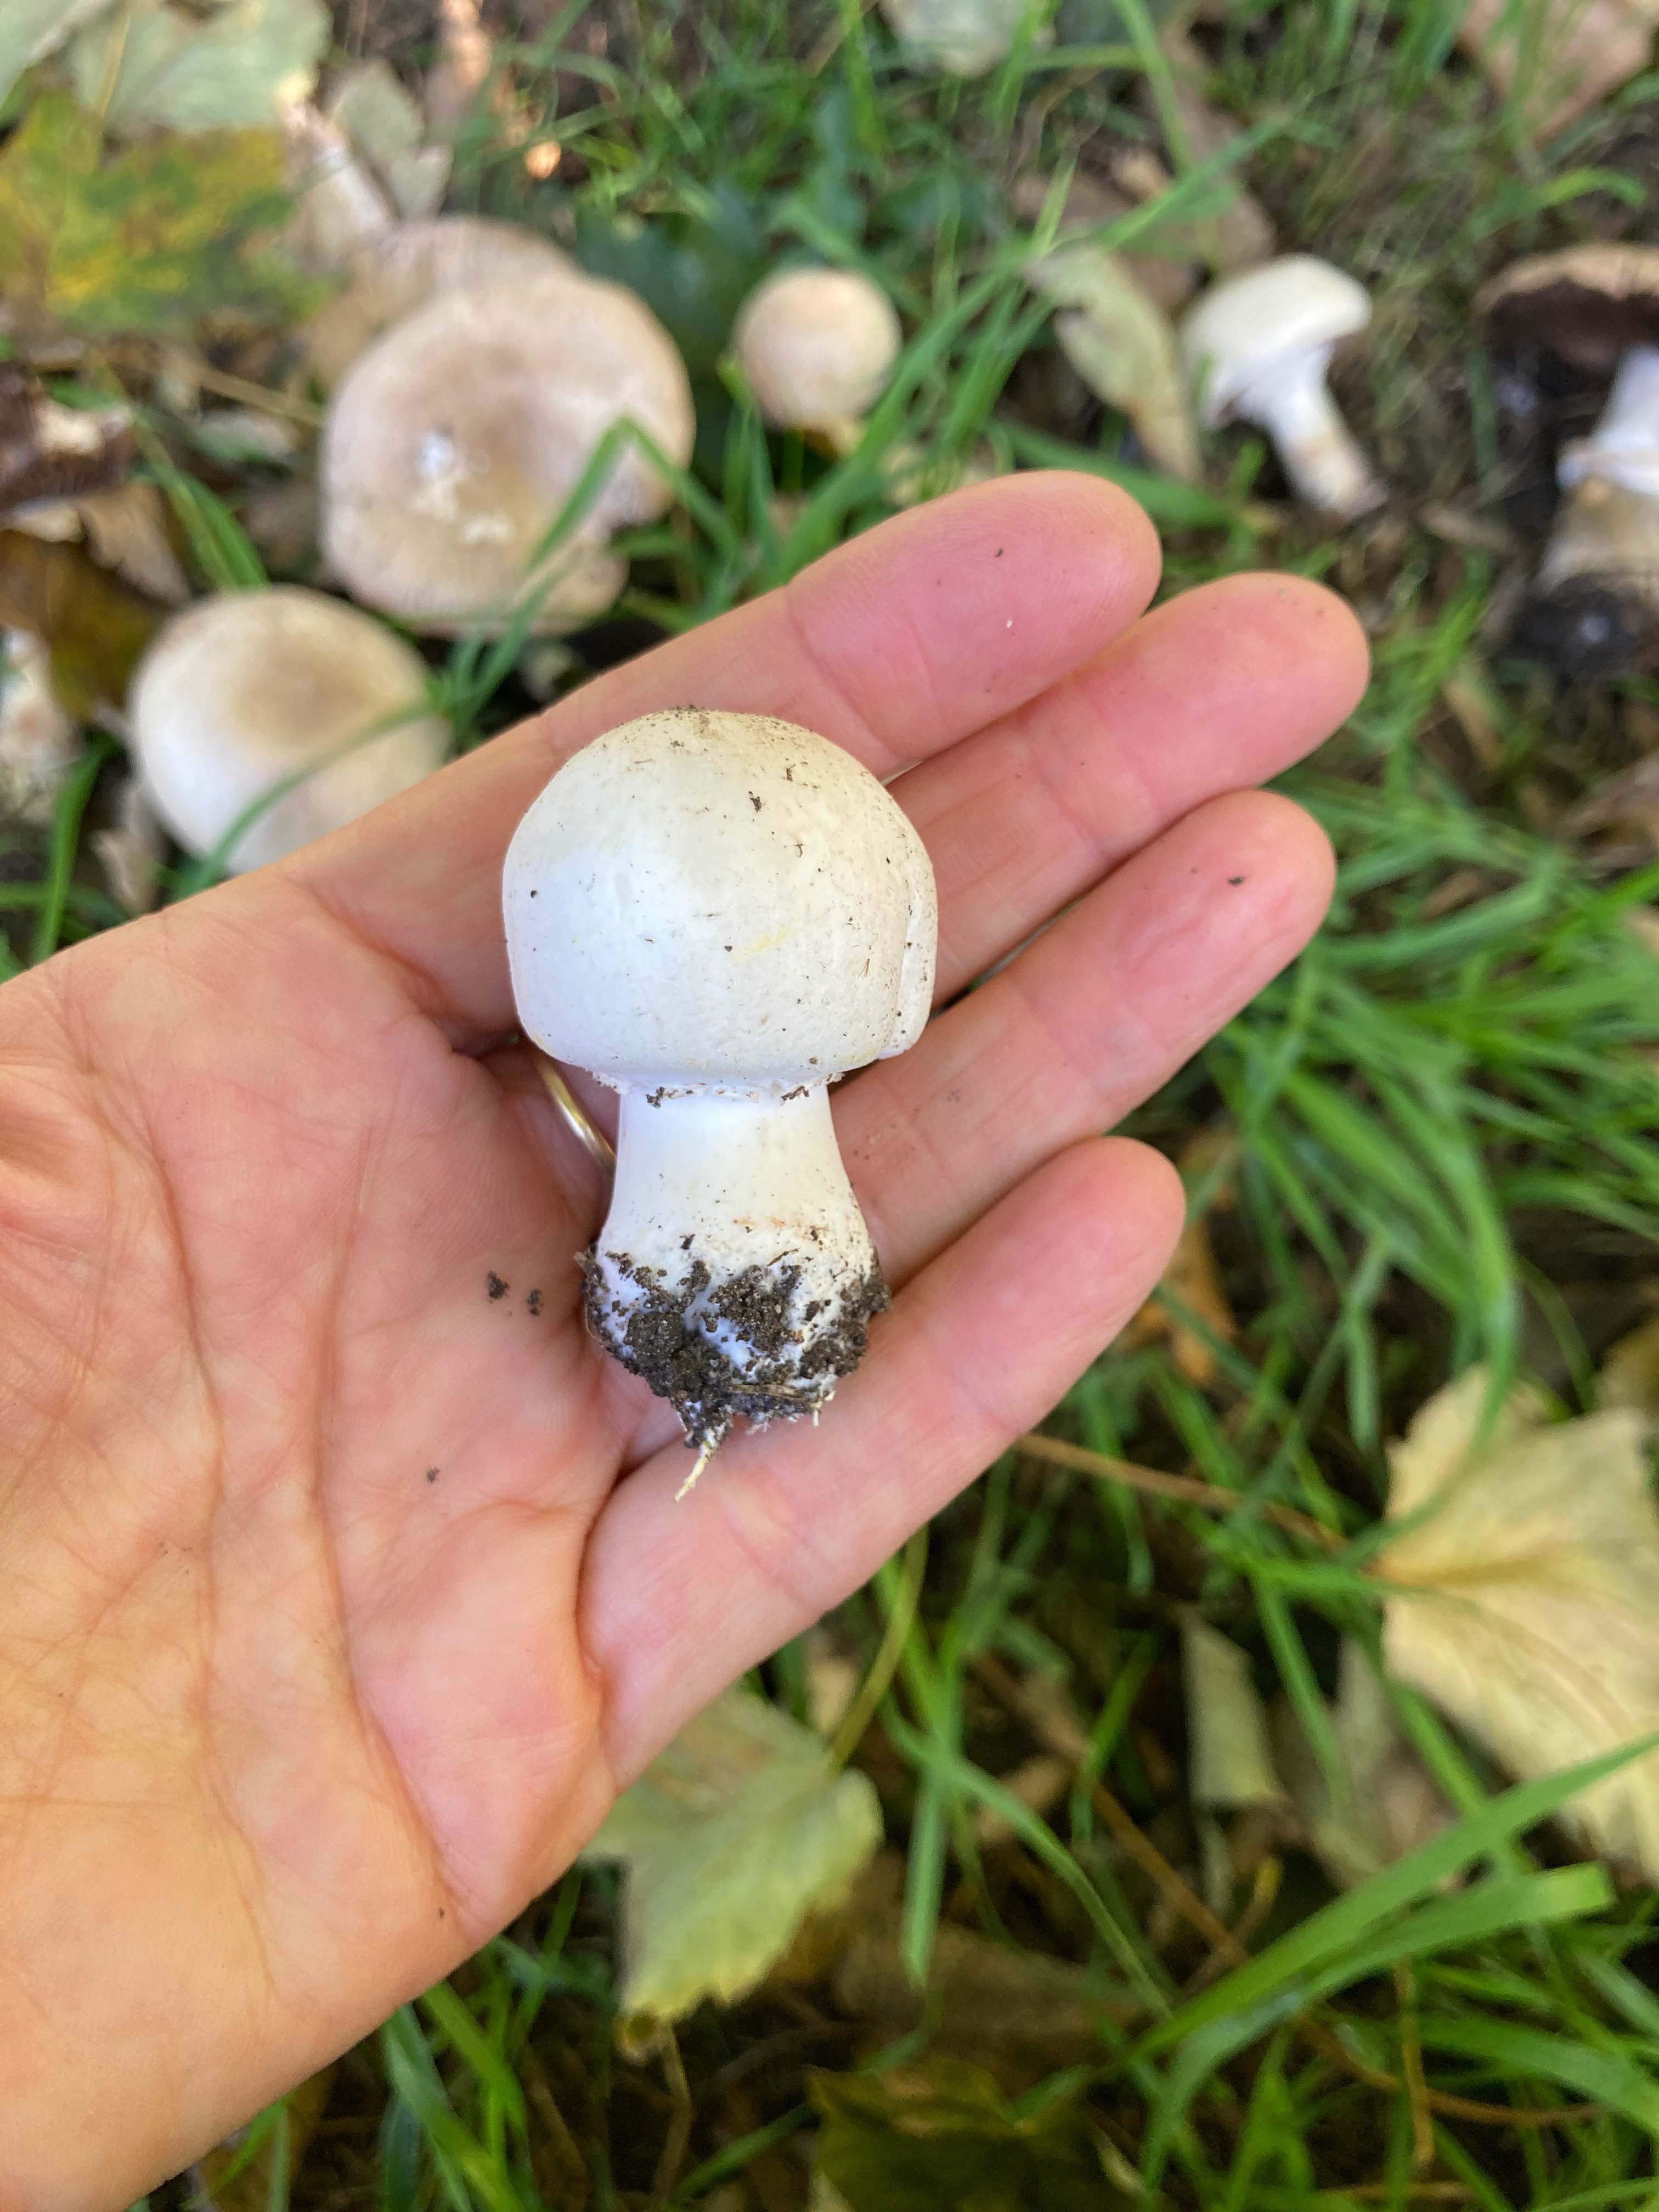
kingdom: Fungi
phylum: Basidiomycota
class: Agaricomycetes
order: Agaricales
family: Agaricaceae
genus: Agaricus
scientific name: Agaricus
